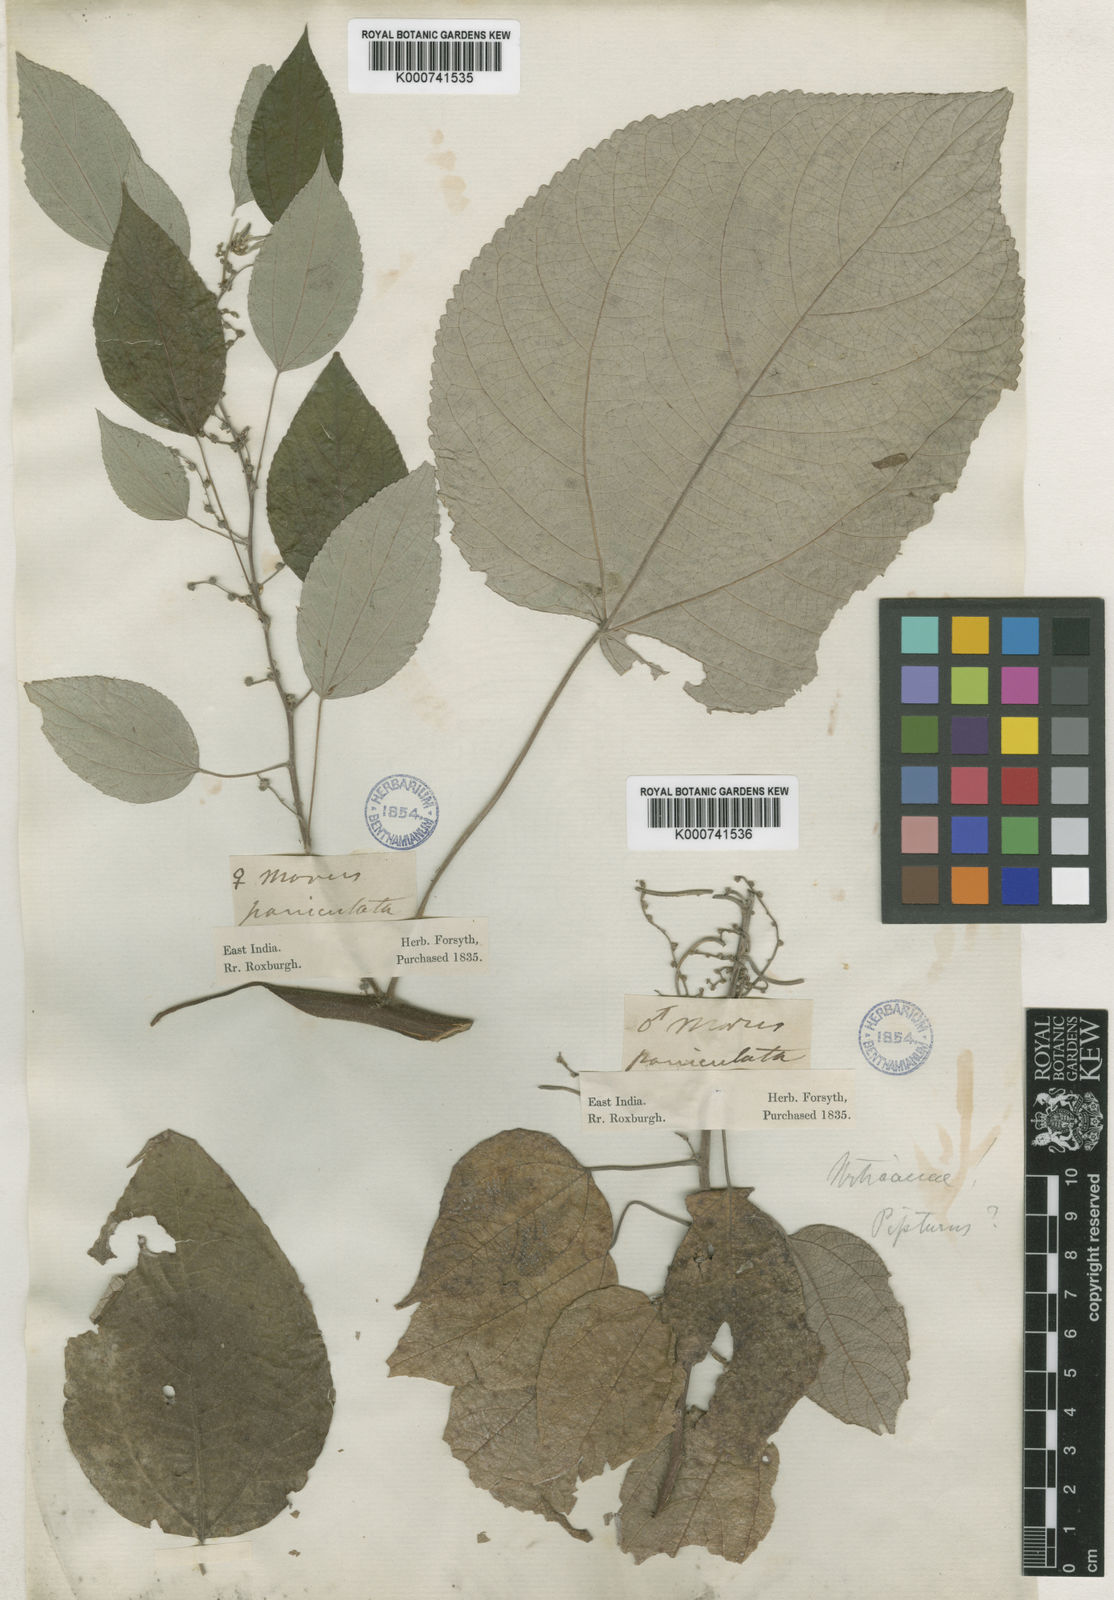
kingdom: Plantae
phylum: Tracheophyta
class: Magnoliopsida
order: Rosales
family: Urticaceae
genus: Pipturus
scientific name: Pipturus argenteus
